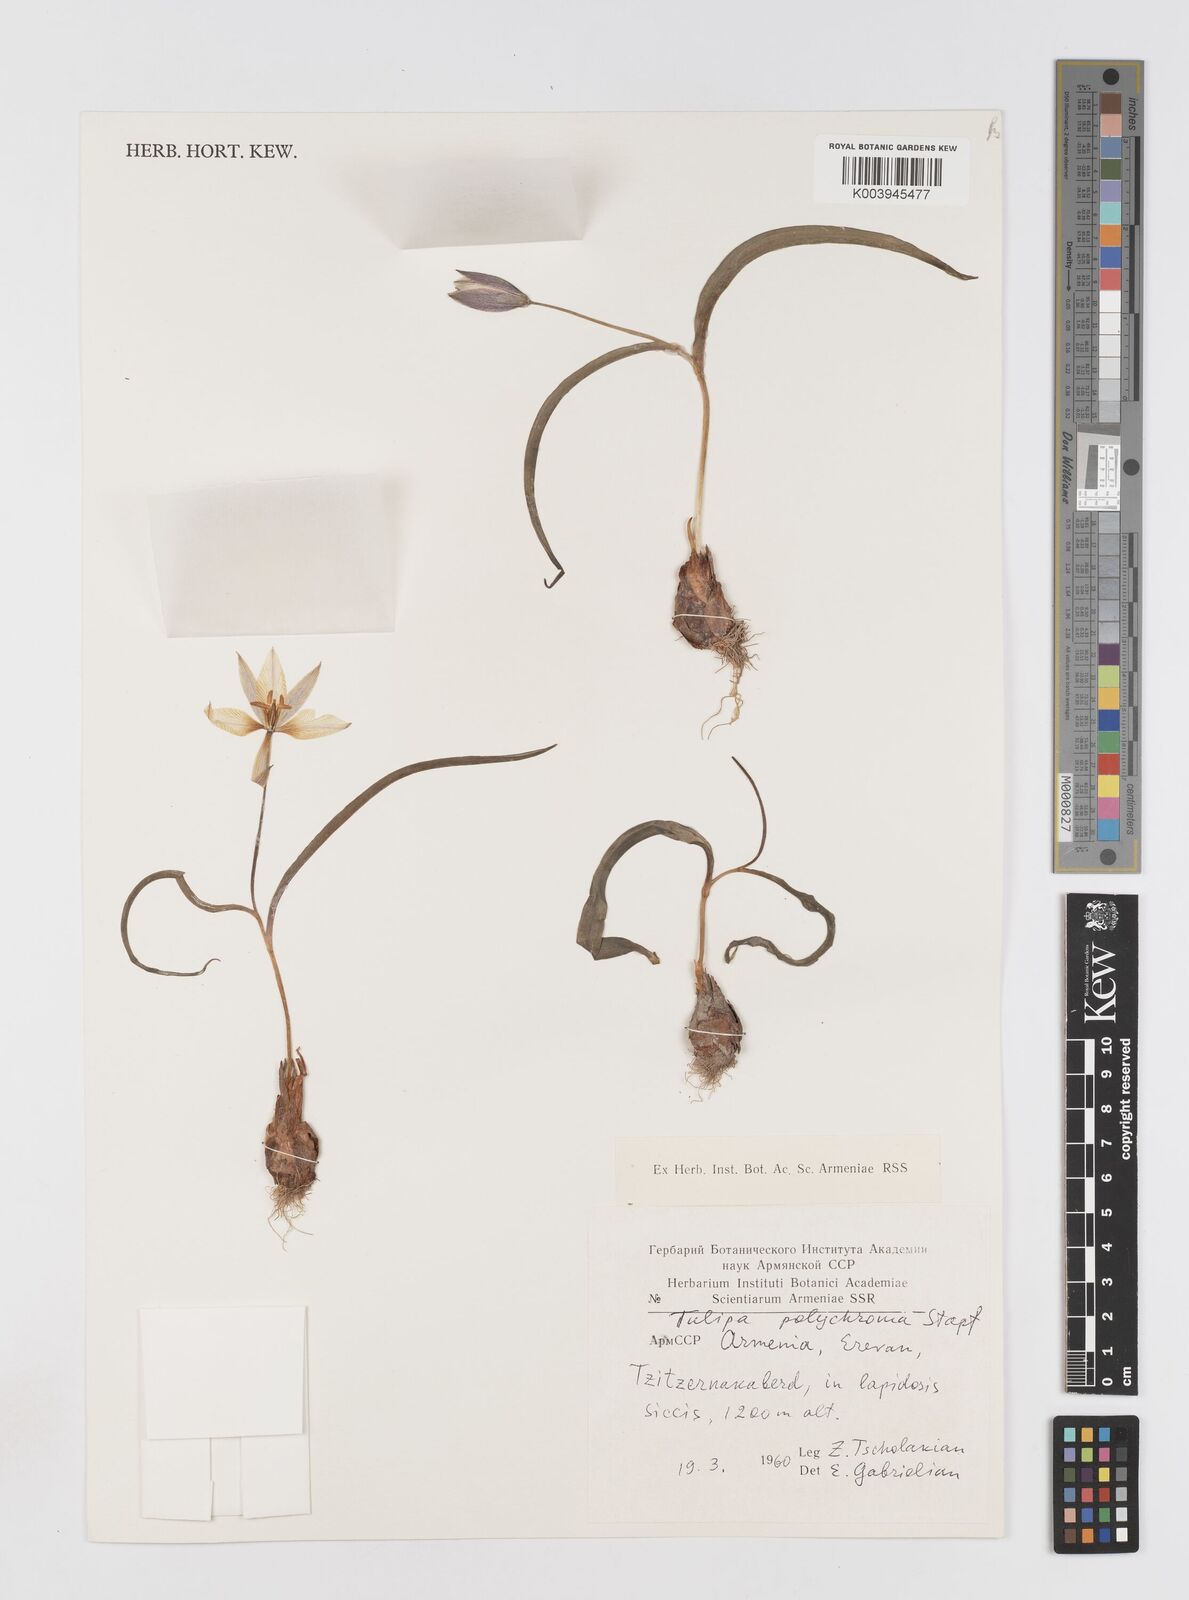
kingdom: Plantae
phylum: Tracheophyta
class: Liliopsida
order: Liliales
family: Liliaceae
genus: Tulipa
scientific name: Tulipa biflora
